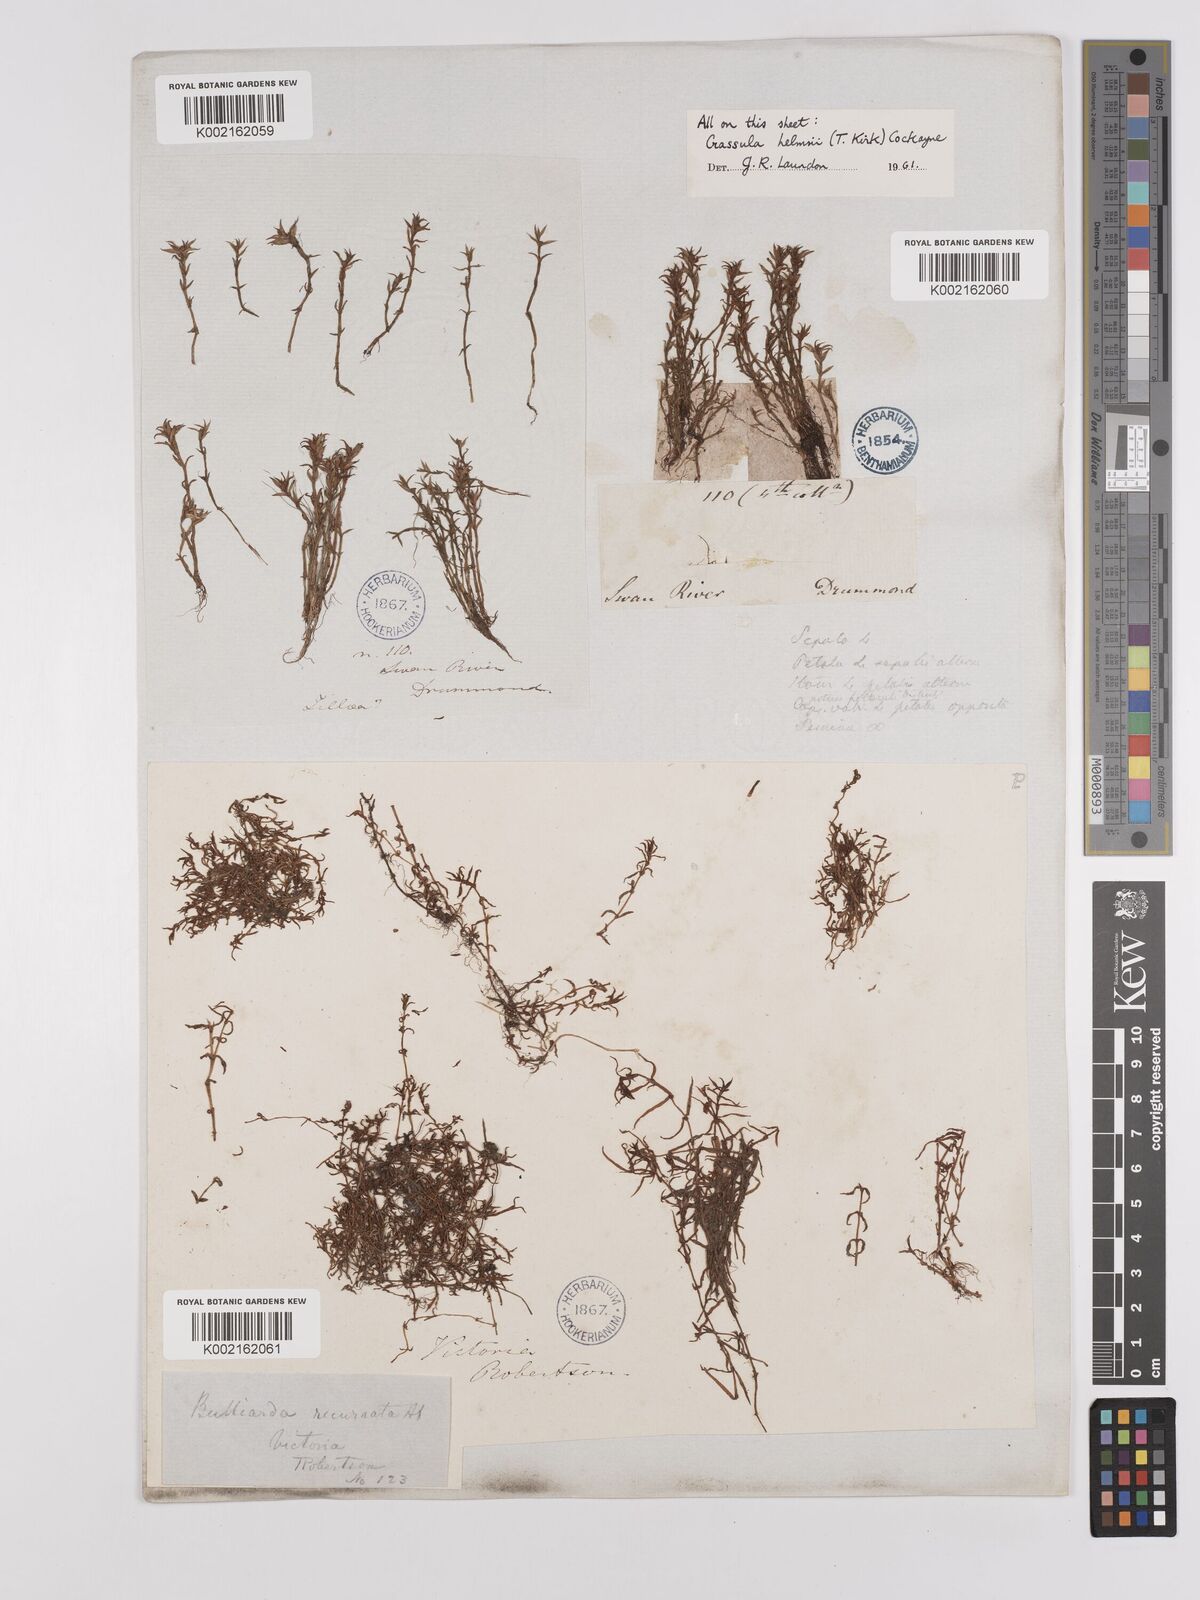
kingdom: Plantae
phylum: Tracheophyta
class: Magnoliopsida
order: Saxifragales
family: Crassulaceae
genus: Crassula
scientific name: Crassula helmsii
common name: New zealand pigmyweed
